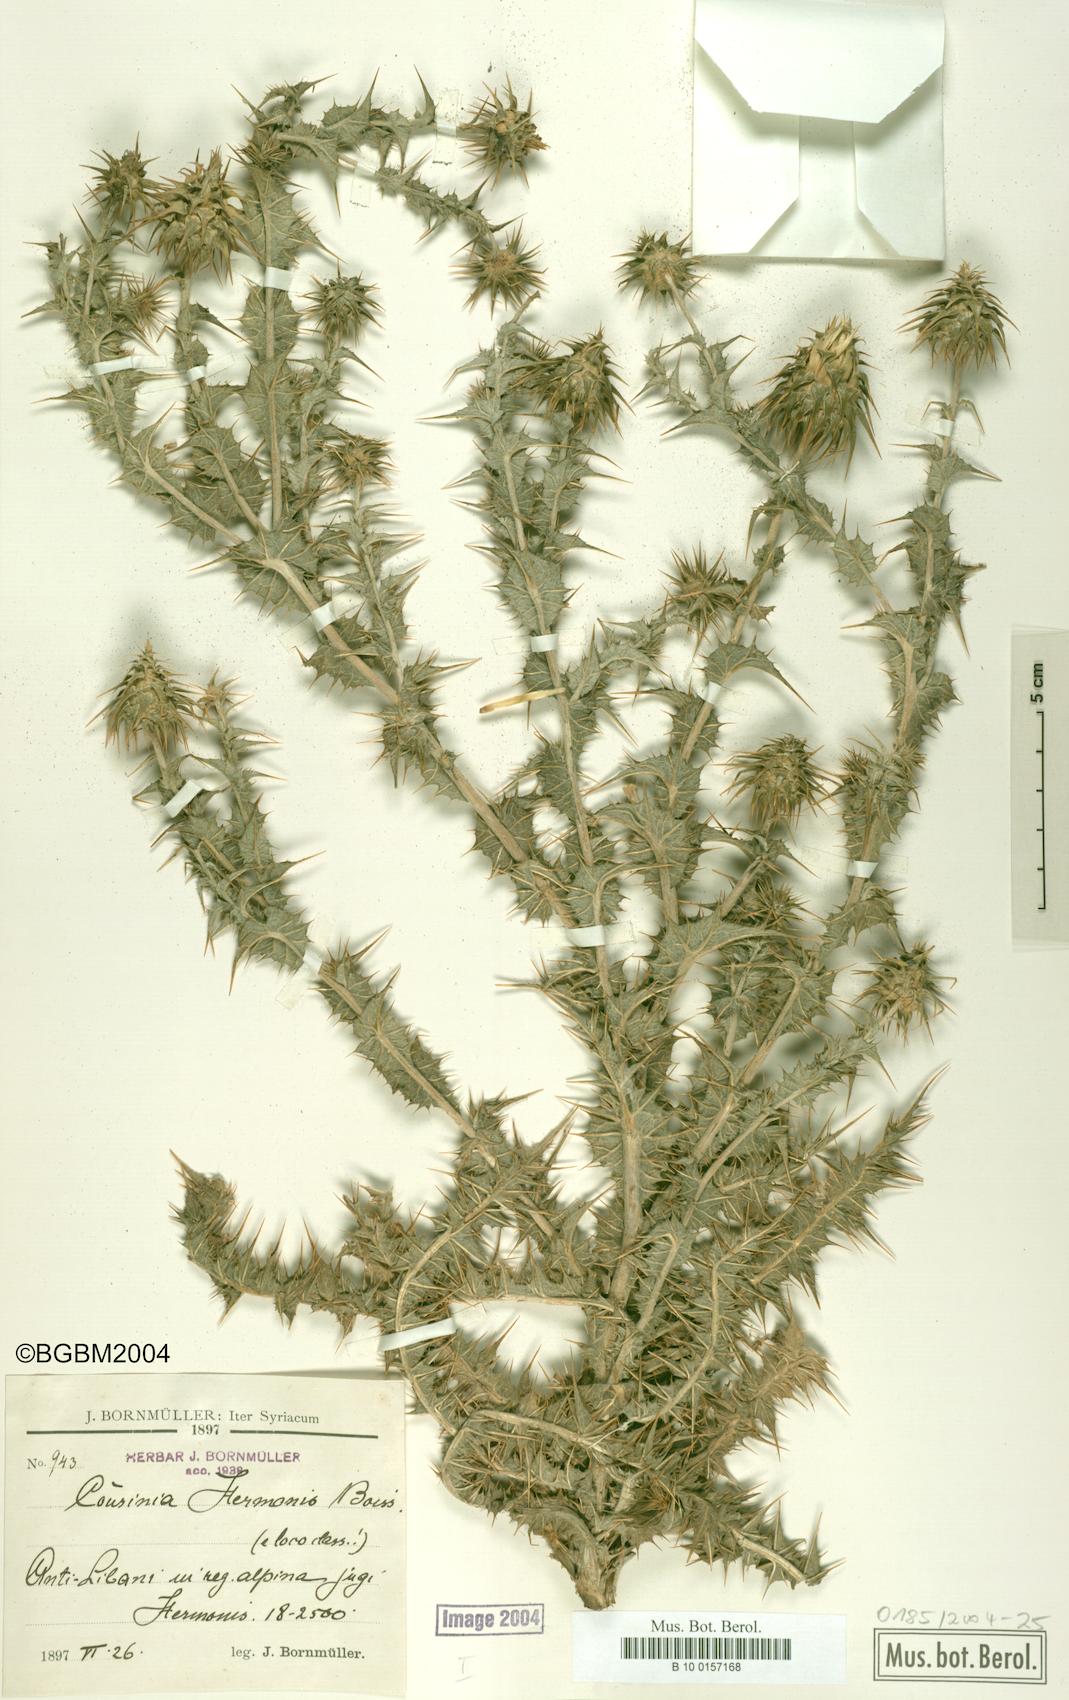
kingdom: Plantae
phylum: Tracheophyta
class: Magnoliopsida
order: Asterales
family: Asteraceae
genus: Cousinia
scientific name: Cousinia libanotica
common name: Lebanon cousinia
